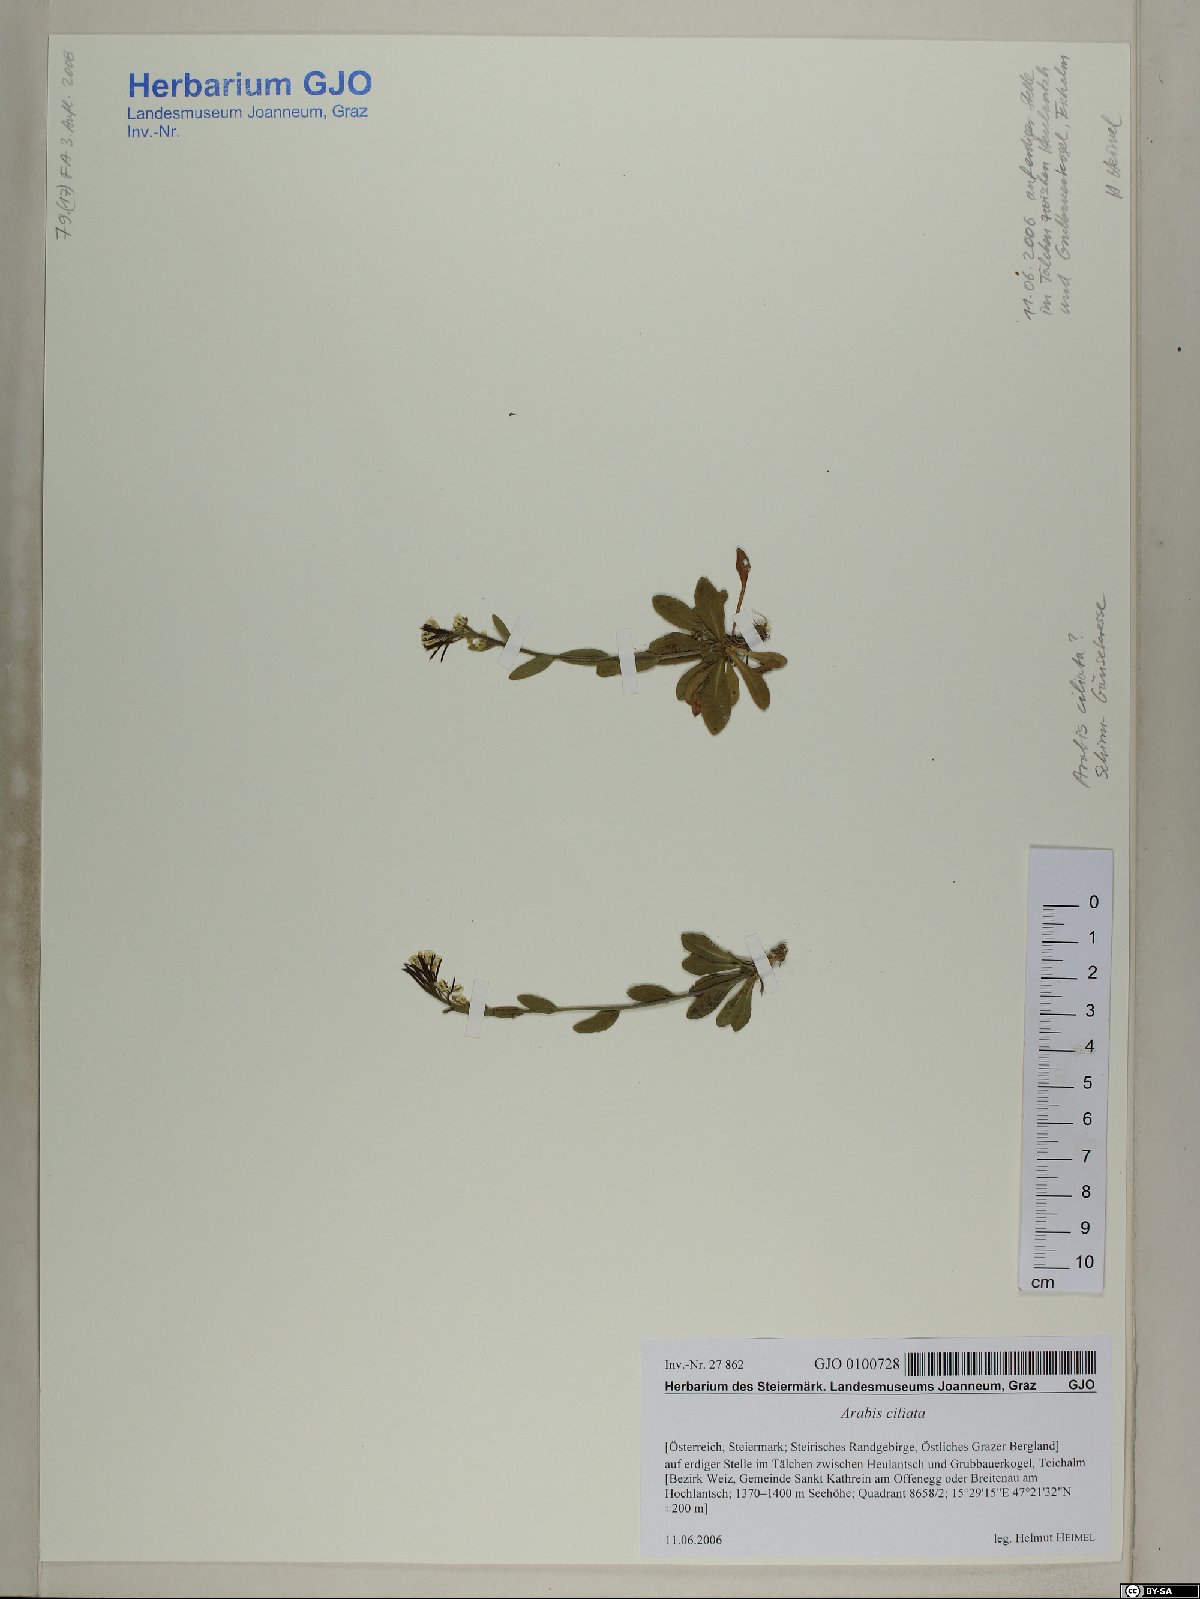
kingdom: Plantae
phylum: Tracheophyta
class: Magnoliopsida
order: Brassicales
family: Brassicaceae
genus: Arabis
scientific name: Arabis ciliata
